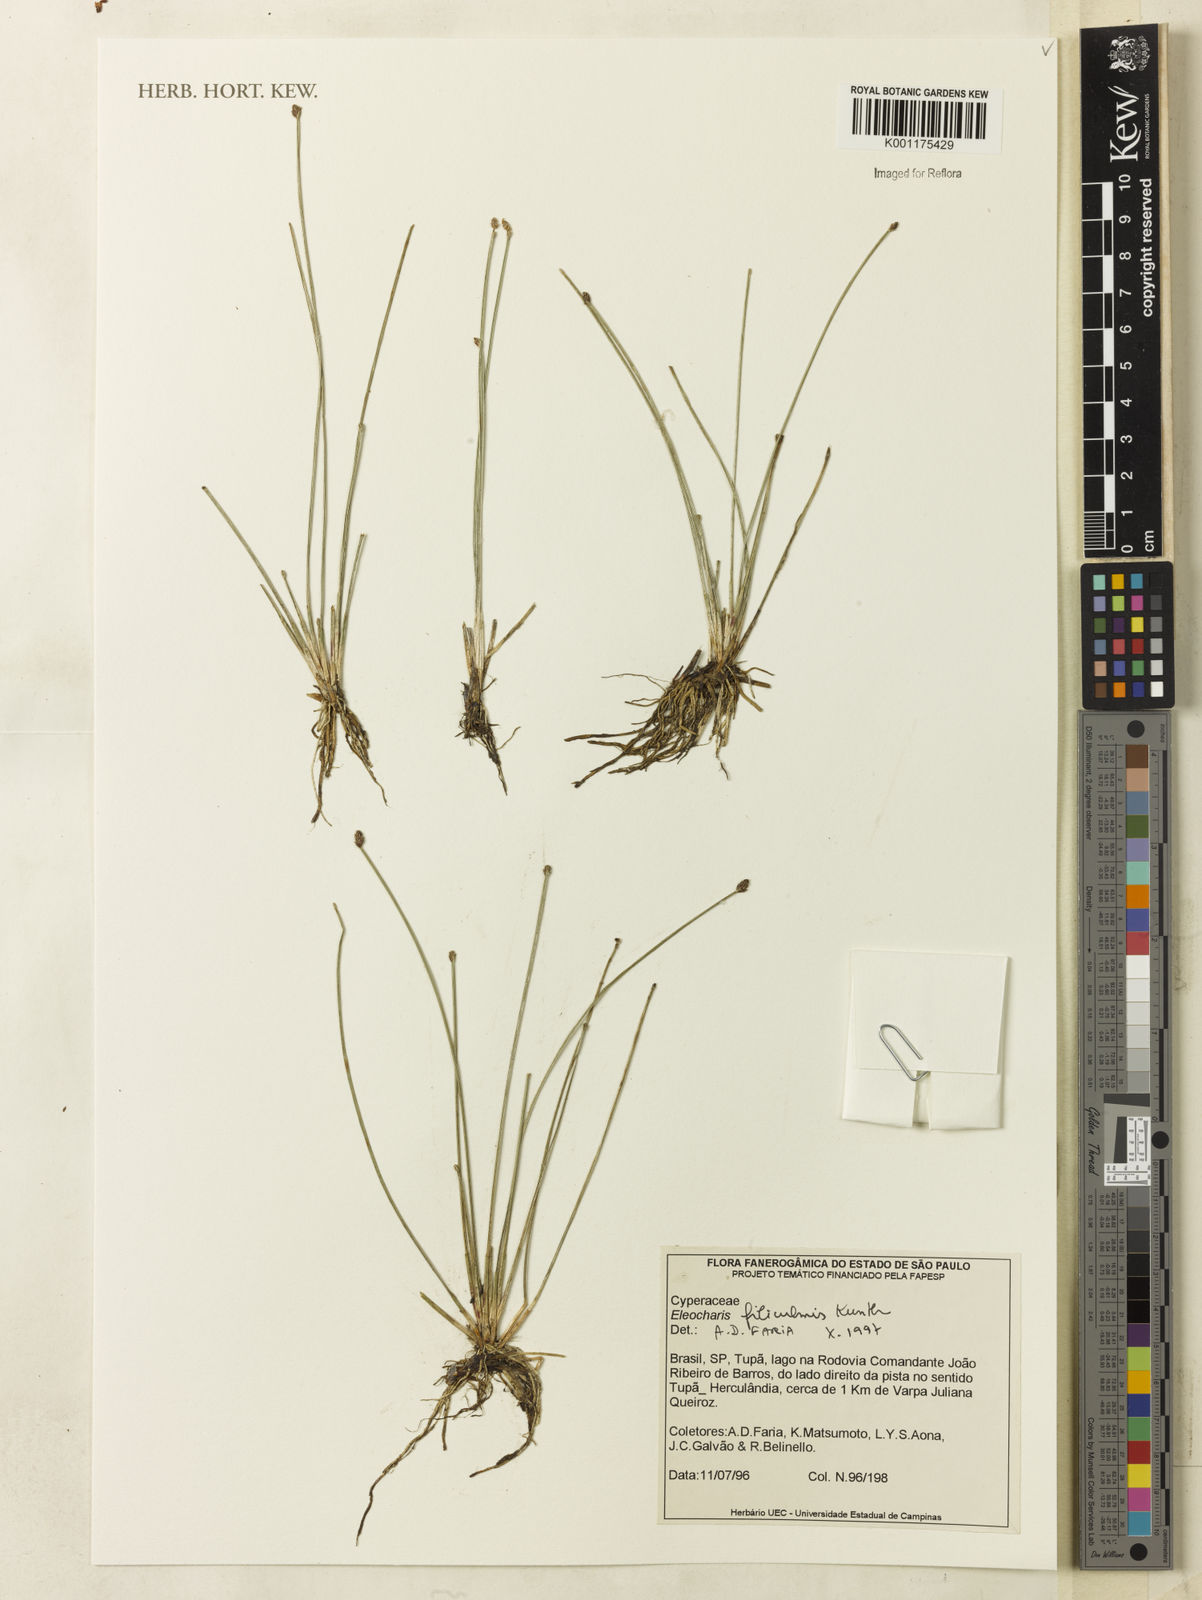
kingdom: Plantae
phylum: Tracheophyta
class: Liliopsida
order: Poales
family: Cyperaceae
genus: Eleocharis
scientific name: Eleocharis filiculmis
